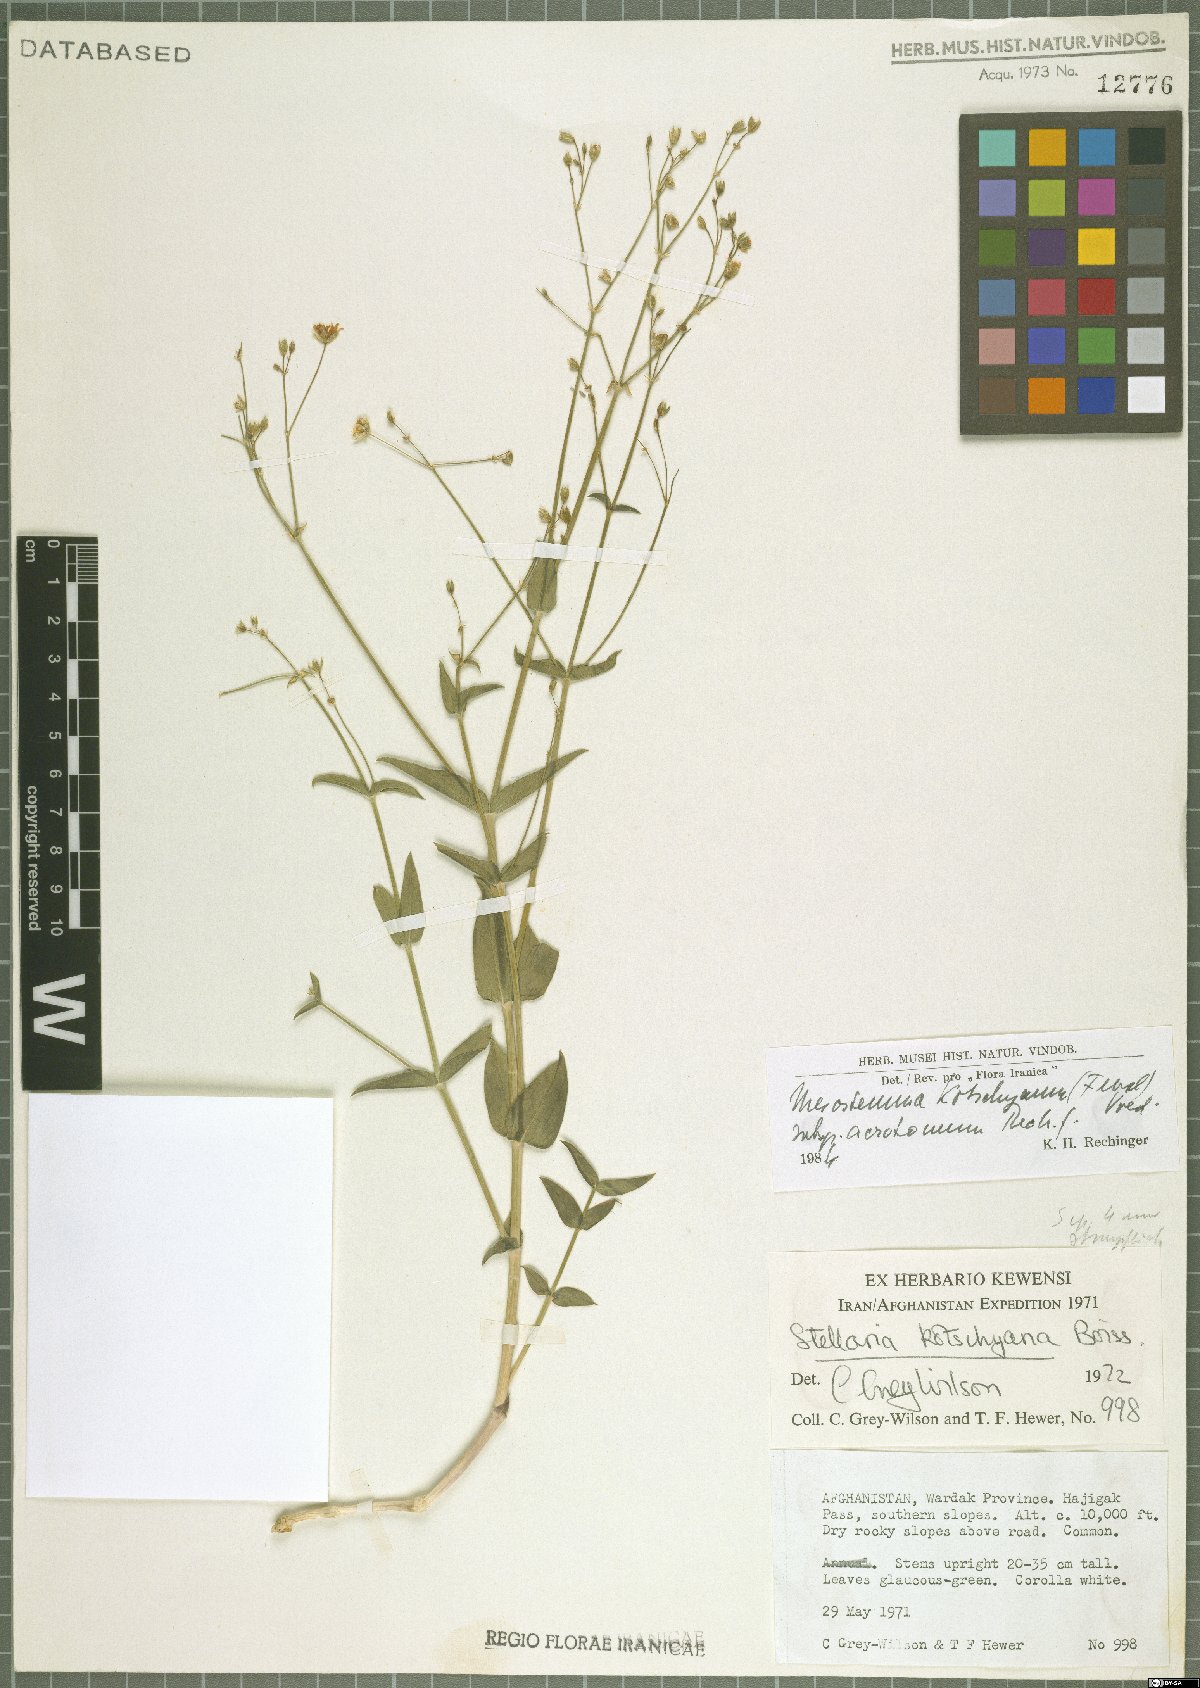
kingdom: Plantae
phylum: Tracheophyta
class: Magnoliopsida
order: Caryophyllales
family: Caryophyllaceae
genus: Mesostemma
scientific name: Mesostemma kotschyanum
